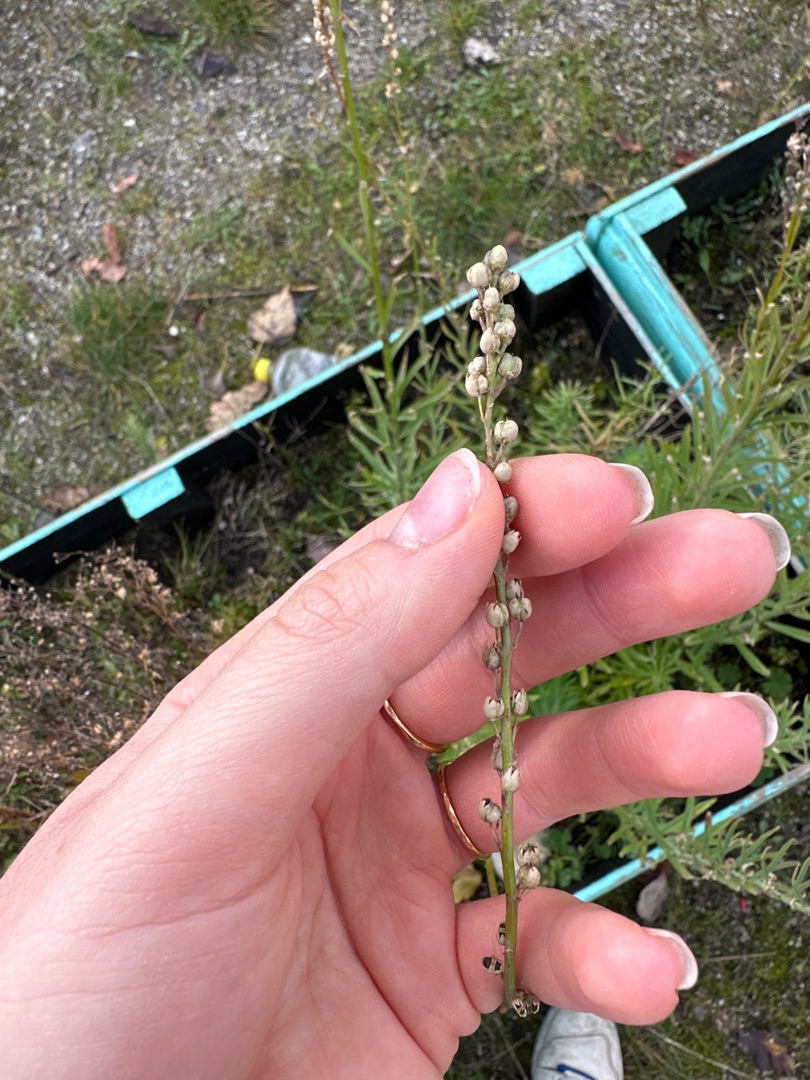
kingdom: Plantae
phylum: Tracheophyta
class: Magnoliopsida
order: Lamiales
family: Plantaginaceae
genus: Linaria
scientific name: Linaria purpurea
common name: Purpur-torskemund
